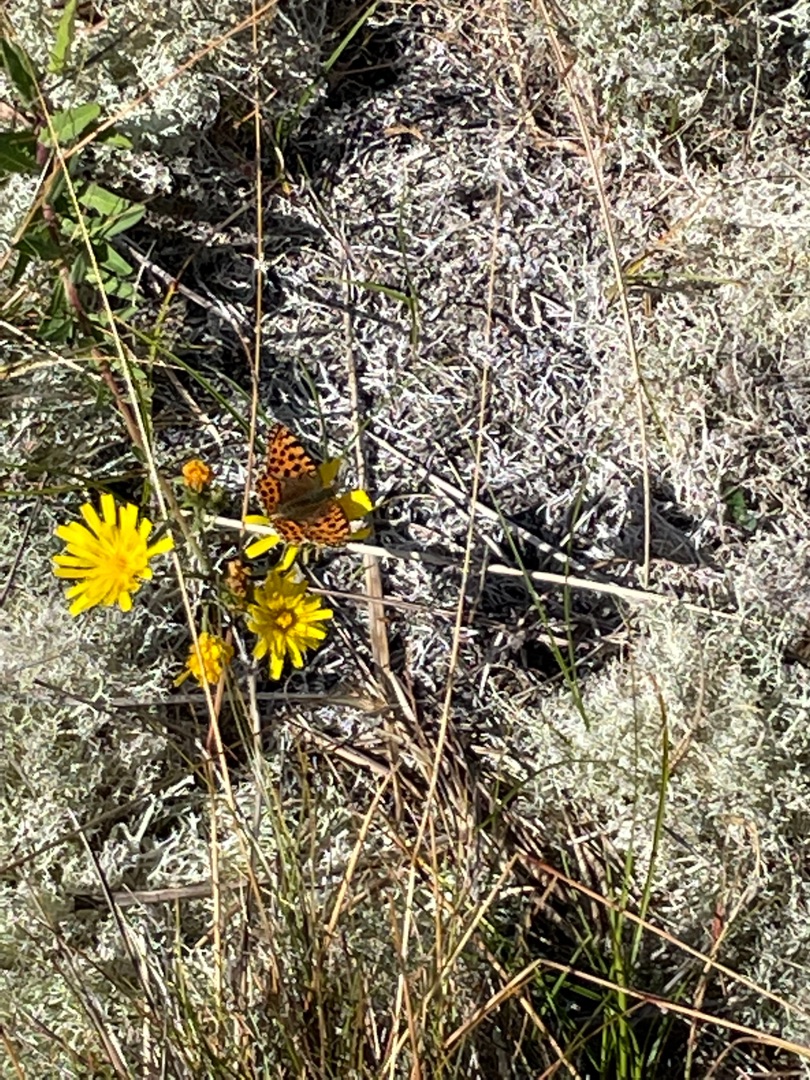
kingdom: Animalia
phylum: Arthropoda
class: Insecta
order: Lepidoptera
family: Nymphalidae
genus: Issoria
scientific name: Issoria lathonia
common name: Storplettet perlemorsommerfugl
